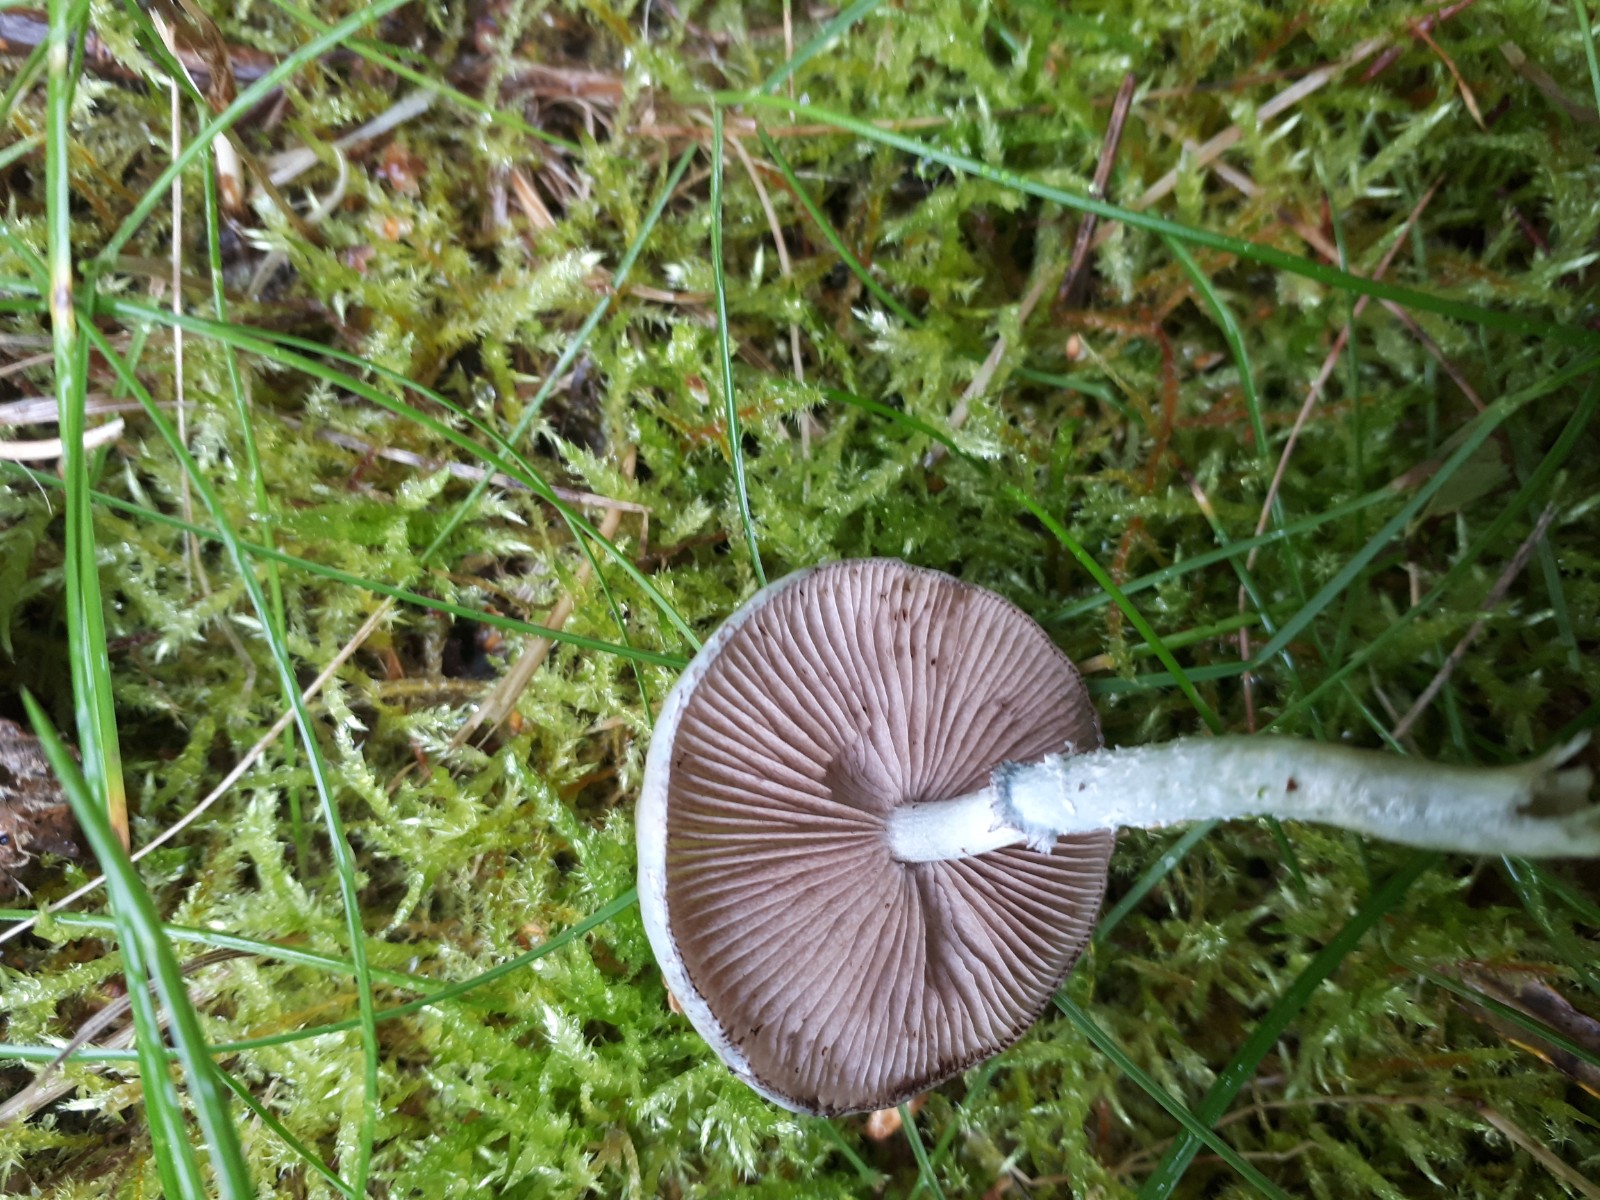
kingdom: Fungi
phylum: Basidiomycota
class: Agaricomycetes
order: Agaricales
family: Strophariaceae
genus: Stropharia
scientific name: Stropharia pseudocyanea
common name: blegblå bredblad
